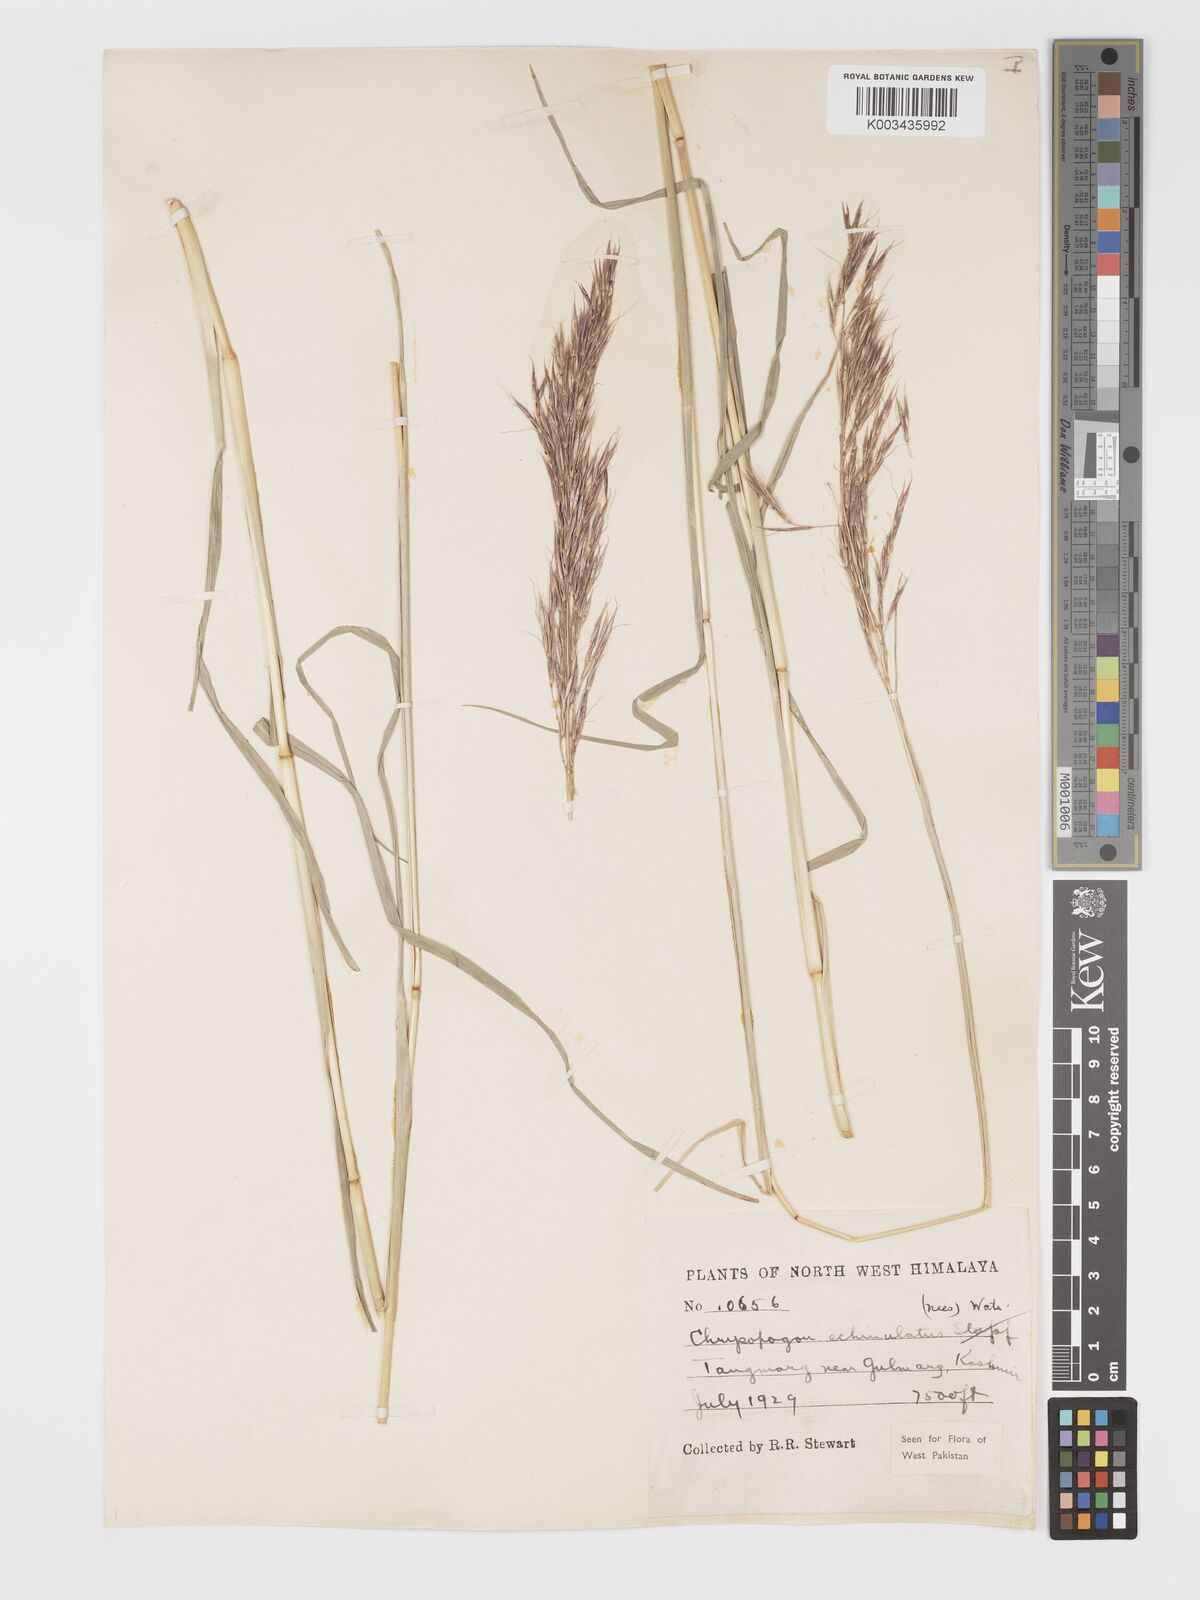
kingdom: Plantae
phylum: Tracheophyta
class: Liliopsida
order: Poales
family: Poaceae
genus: Chrysopogon
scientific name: Chrysopogon gryllus
